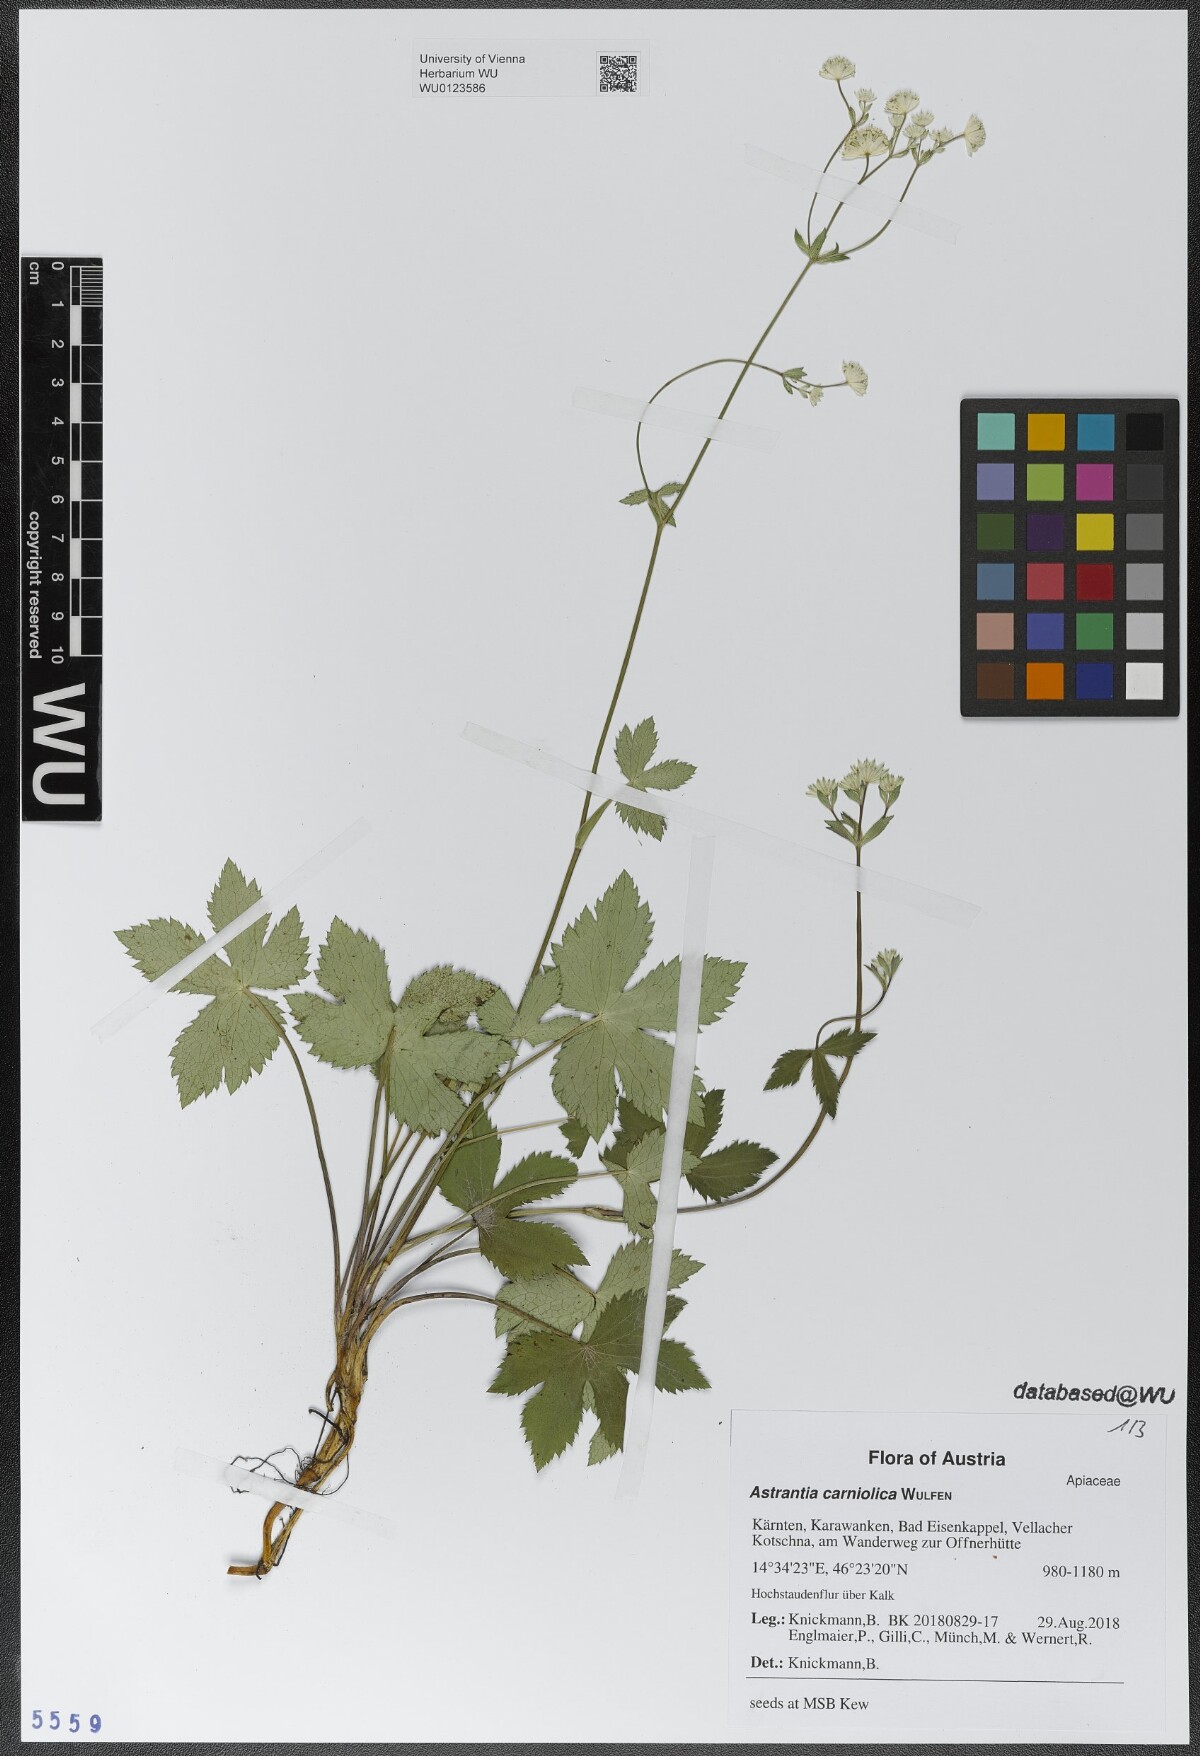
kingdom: Plantae
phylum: Tracheophyta
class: Magnoliopsida
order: Apiales
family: Apiaceae
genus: Astrantia
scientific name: Astrantia carniolica
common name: Carnic masterwort
